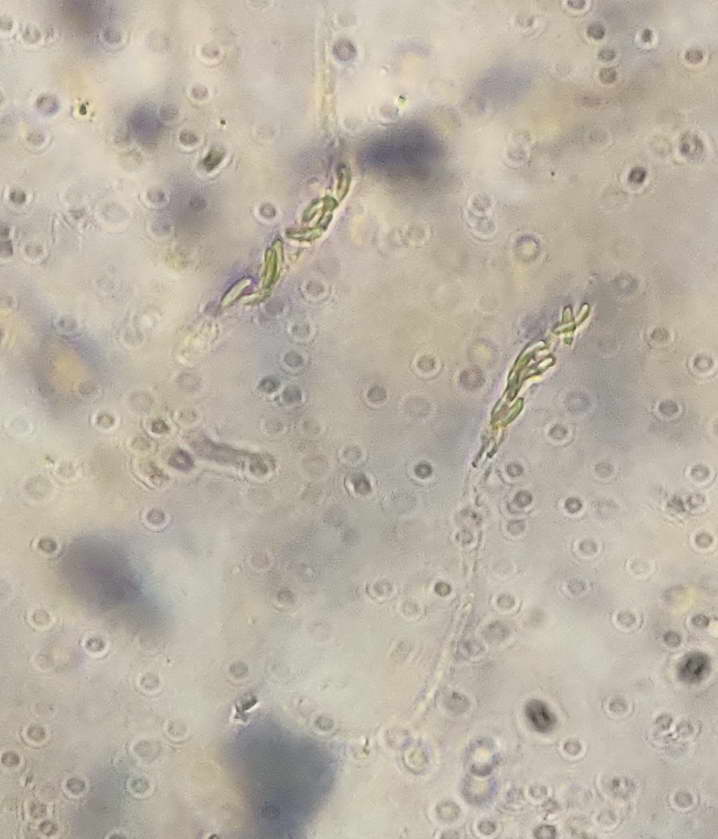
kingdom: Fungi
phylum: Ascomycota
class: Sordariomycetes
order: Diaporthales
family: Valsaceae
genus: Cytospora
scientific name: Cytospora populina
